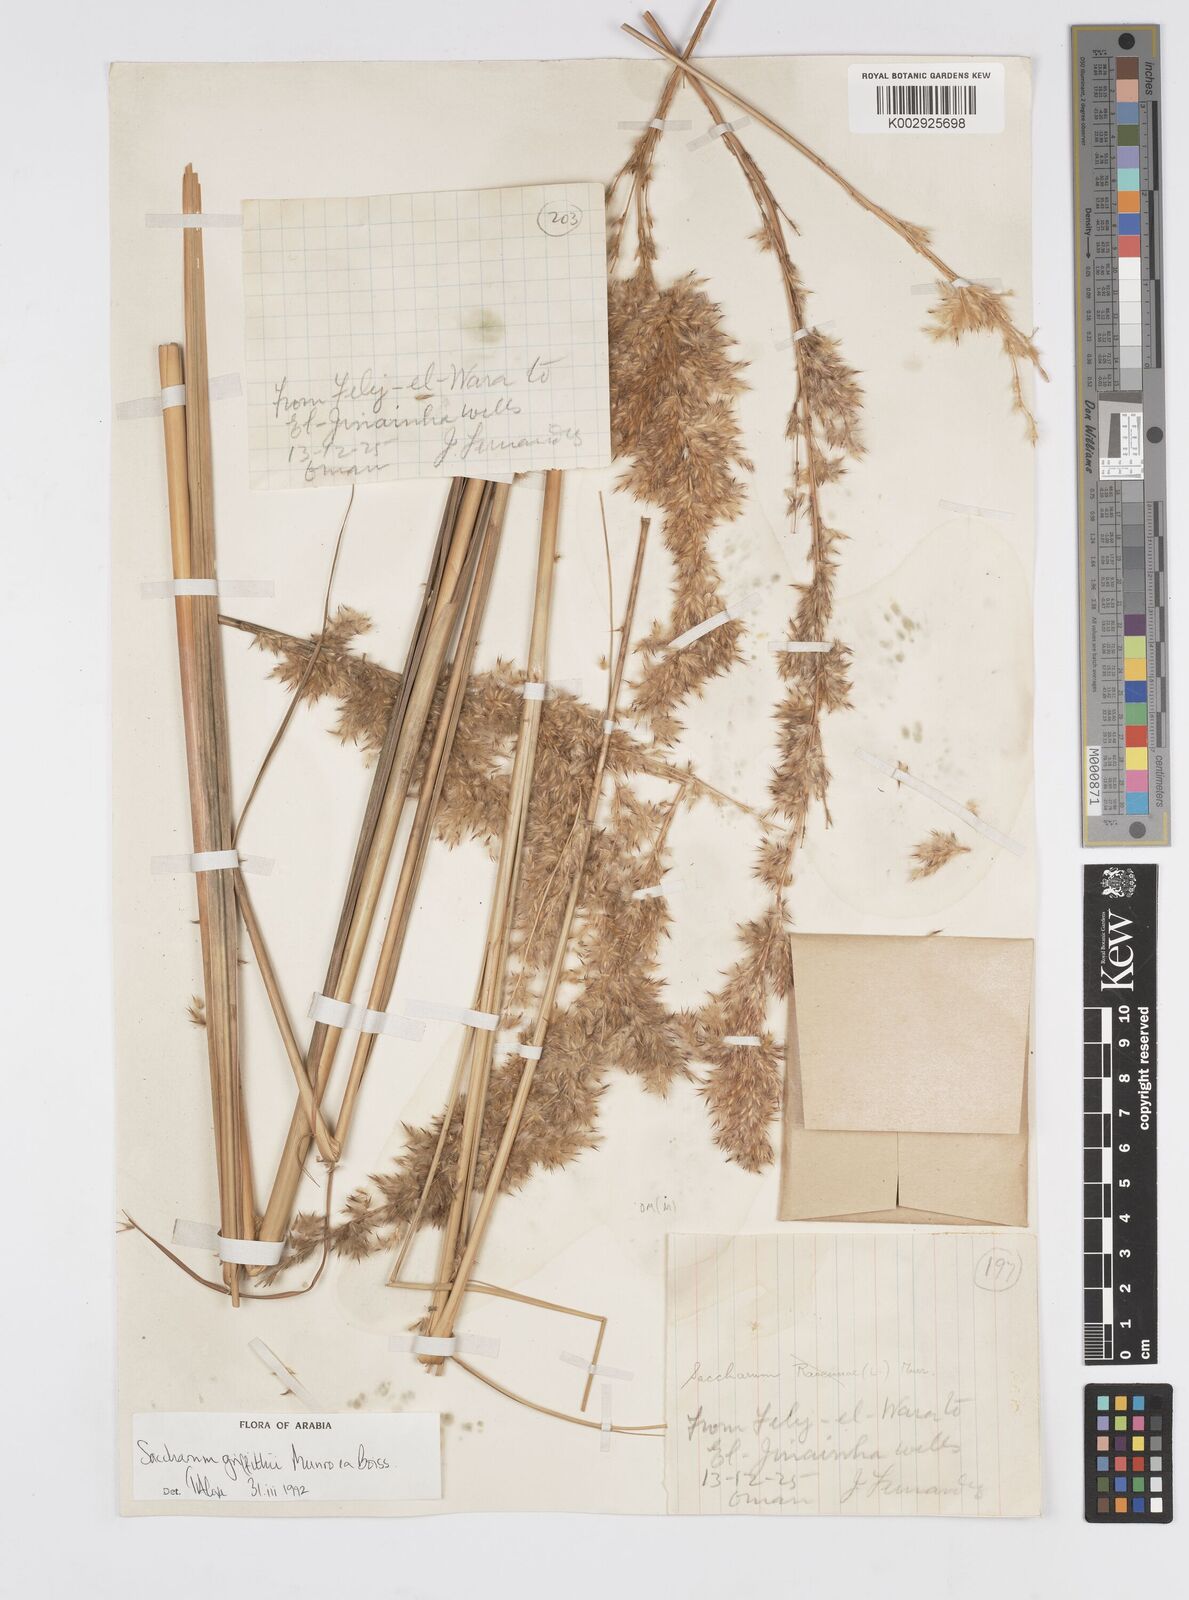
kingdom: Plantae
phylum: Tracheophyta
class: Liliopsida
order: Poales
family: Poaceae
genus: Saccharum
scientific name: Saccharum griffithii
